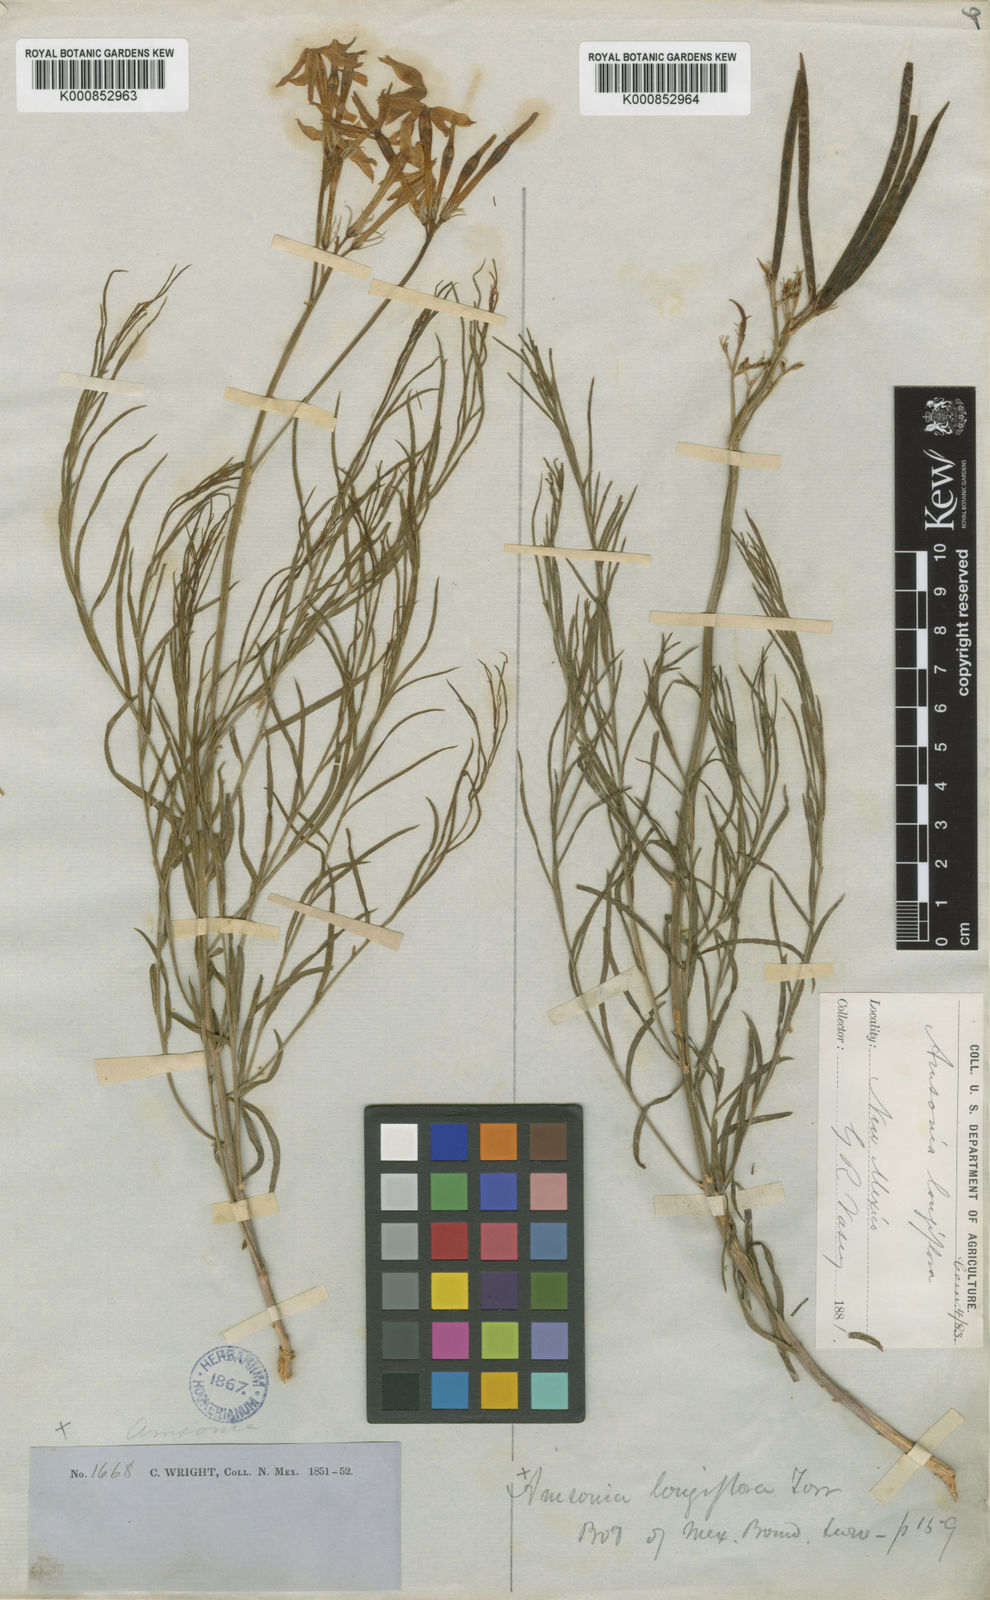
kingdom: Plantae
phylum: Tracheophyta
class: Magnoliopsida
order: Gentianales
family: Apocynaceae
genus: Amsonia
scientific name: Amsonia longiflora
